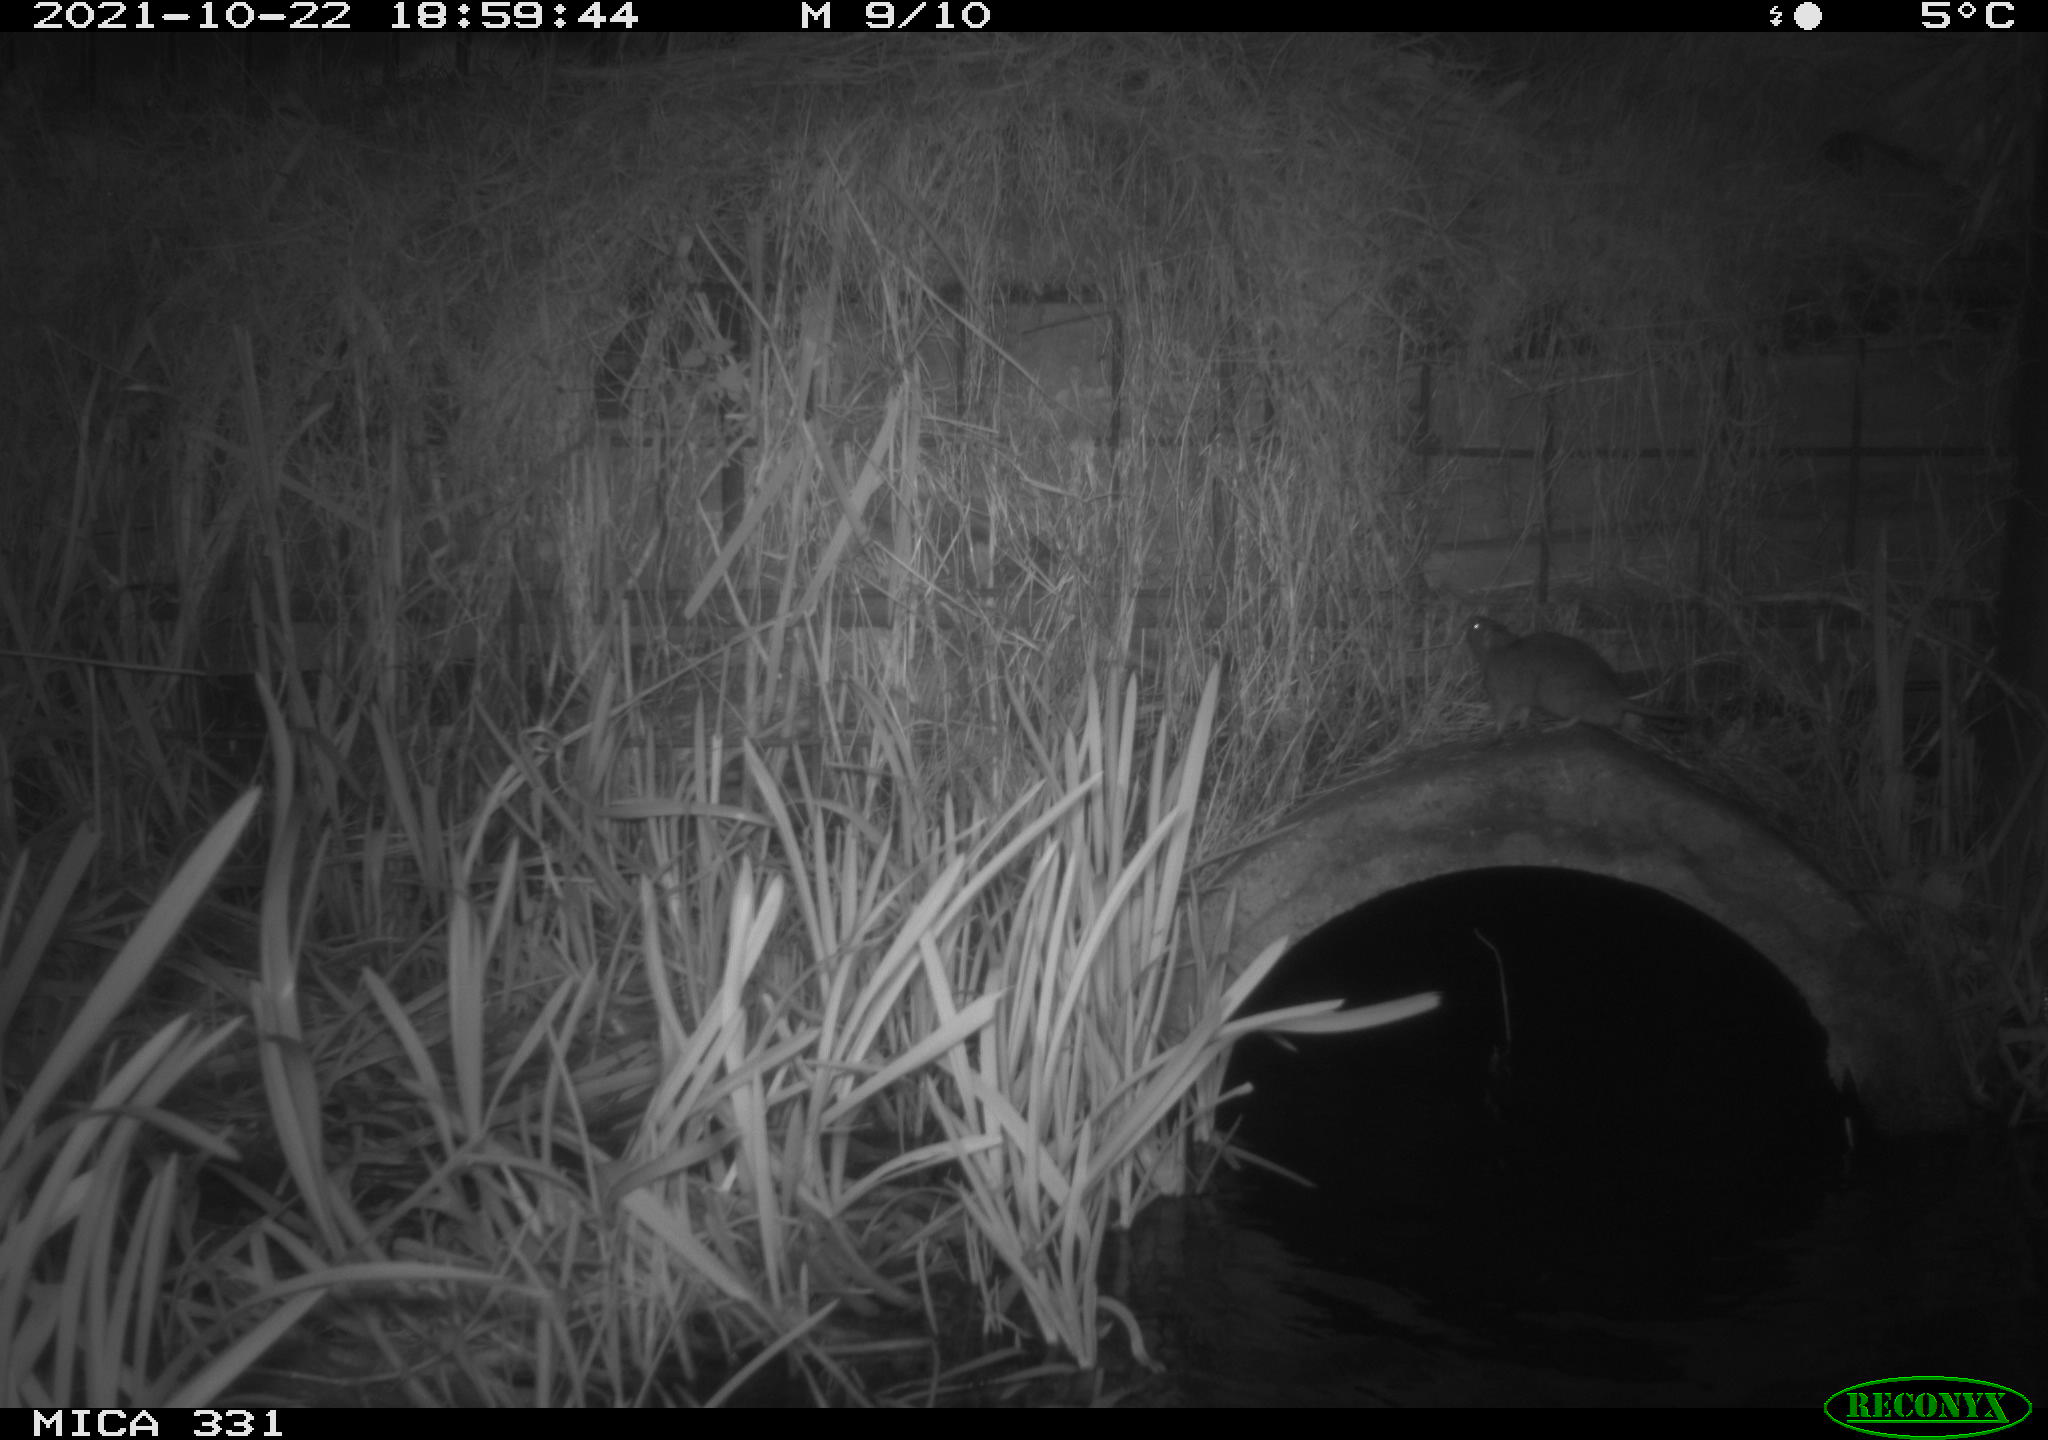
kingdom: Animalia
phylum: Chordata
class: Mammalia
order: Rodentia
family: Muridae
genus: Rattus
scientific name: Rattus norvegicus
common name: Brown rat
